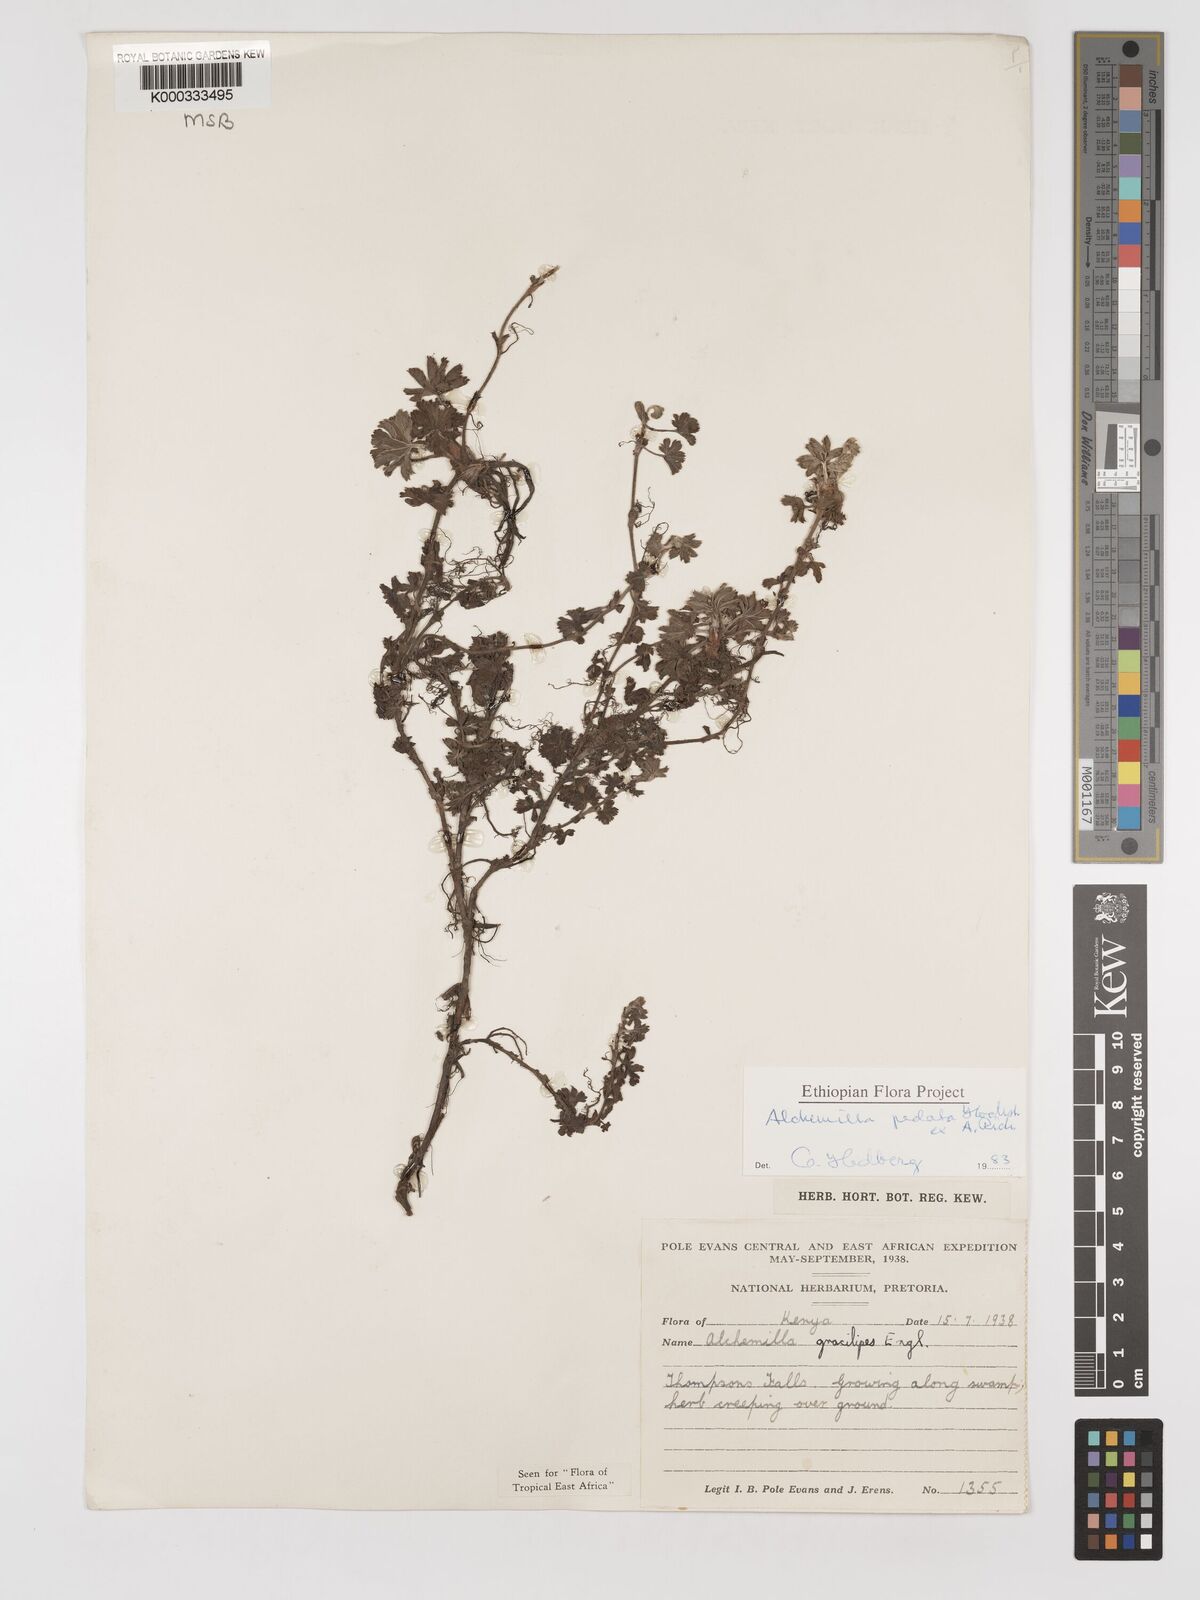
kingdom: Plantae
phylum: Tracheophyta
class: Magnoliopsida
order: Rosales
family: Rosaceae
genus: Alchemilla
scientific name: Alchemilla pedata
